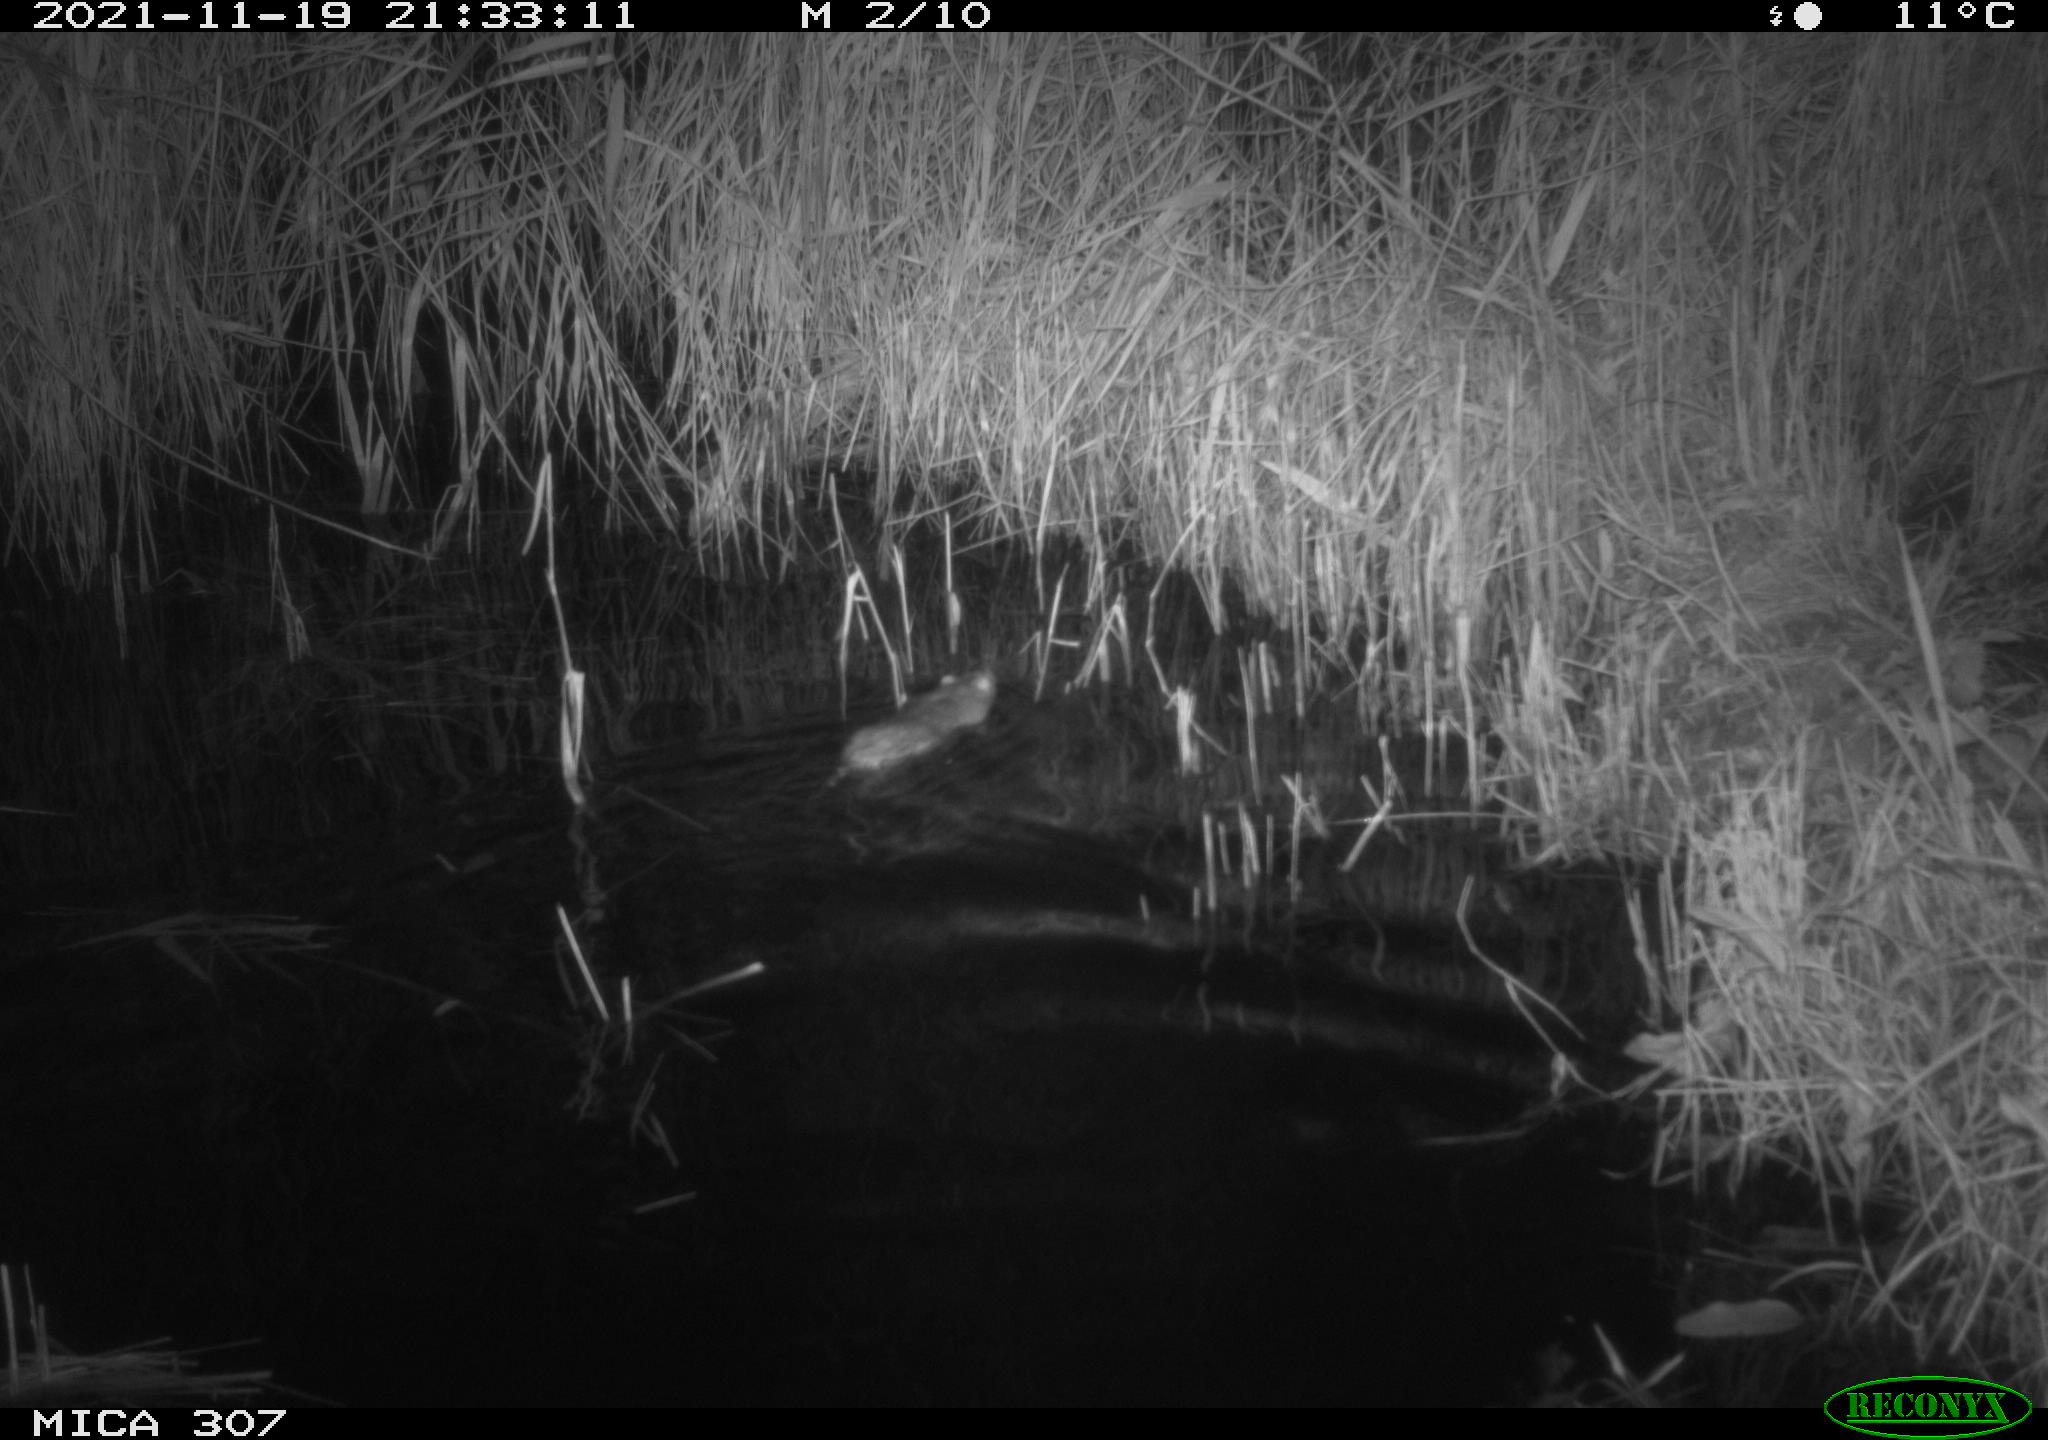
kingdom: Animalia
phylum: Chordata
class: Mammalia
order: Rodentia
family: Muridae
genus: Rattus
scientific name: Rattus norvegicus
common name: Brown rat
